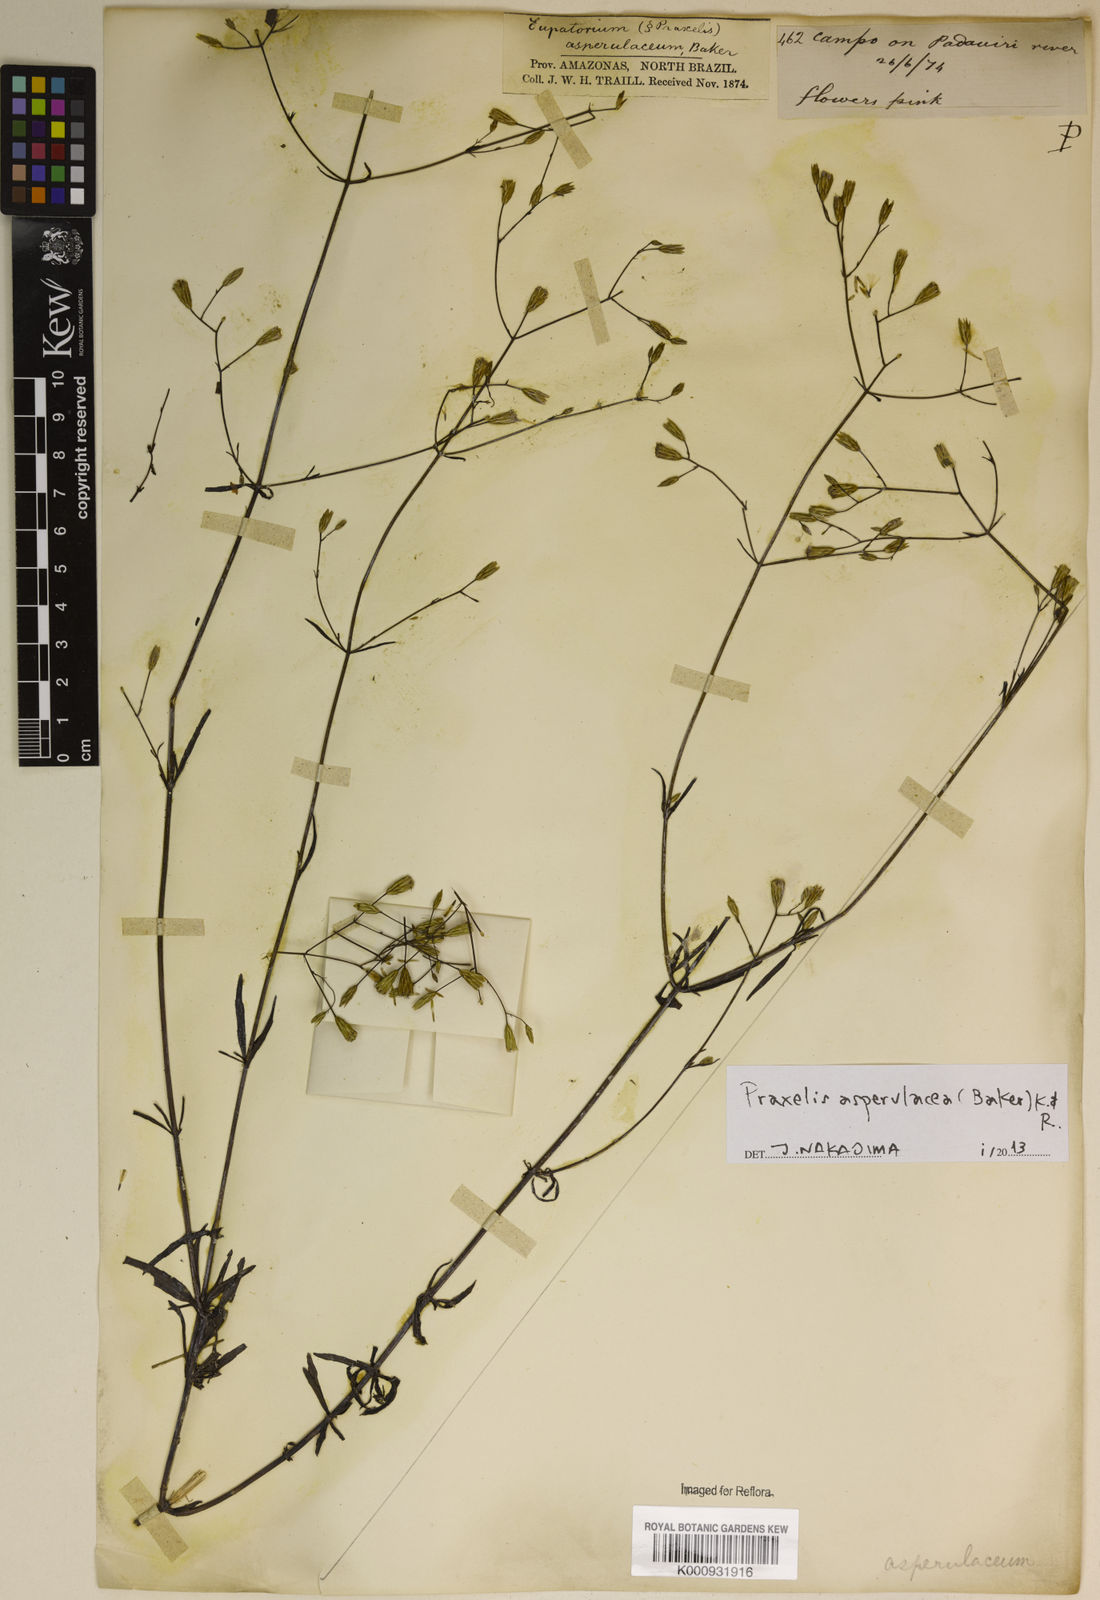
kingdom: Plantae
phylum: Tracheophyta
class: Magnoliopsida
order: Asterales
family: Asteraceae
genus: Praxelis
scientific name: Praxelis asperulacea
